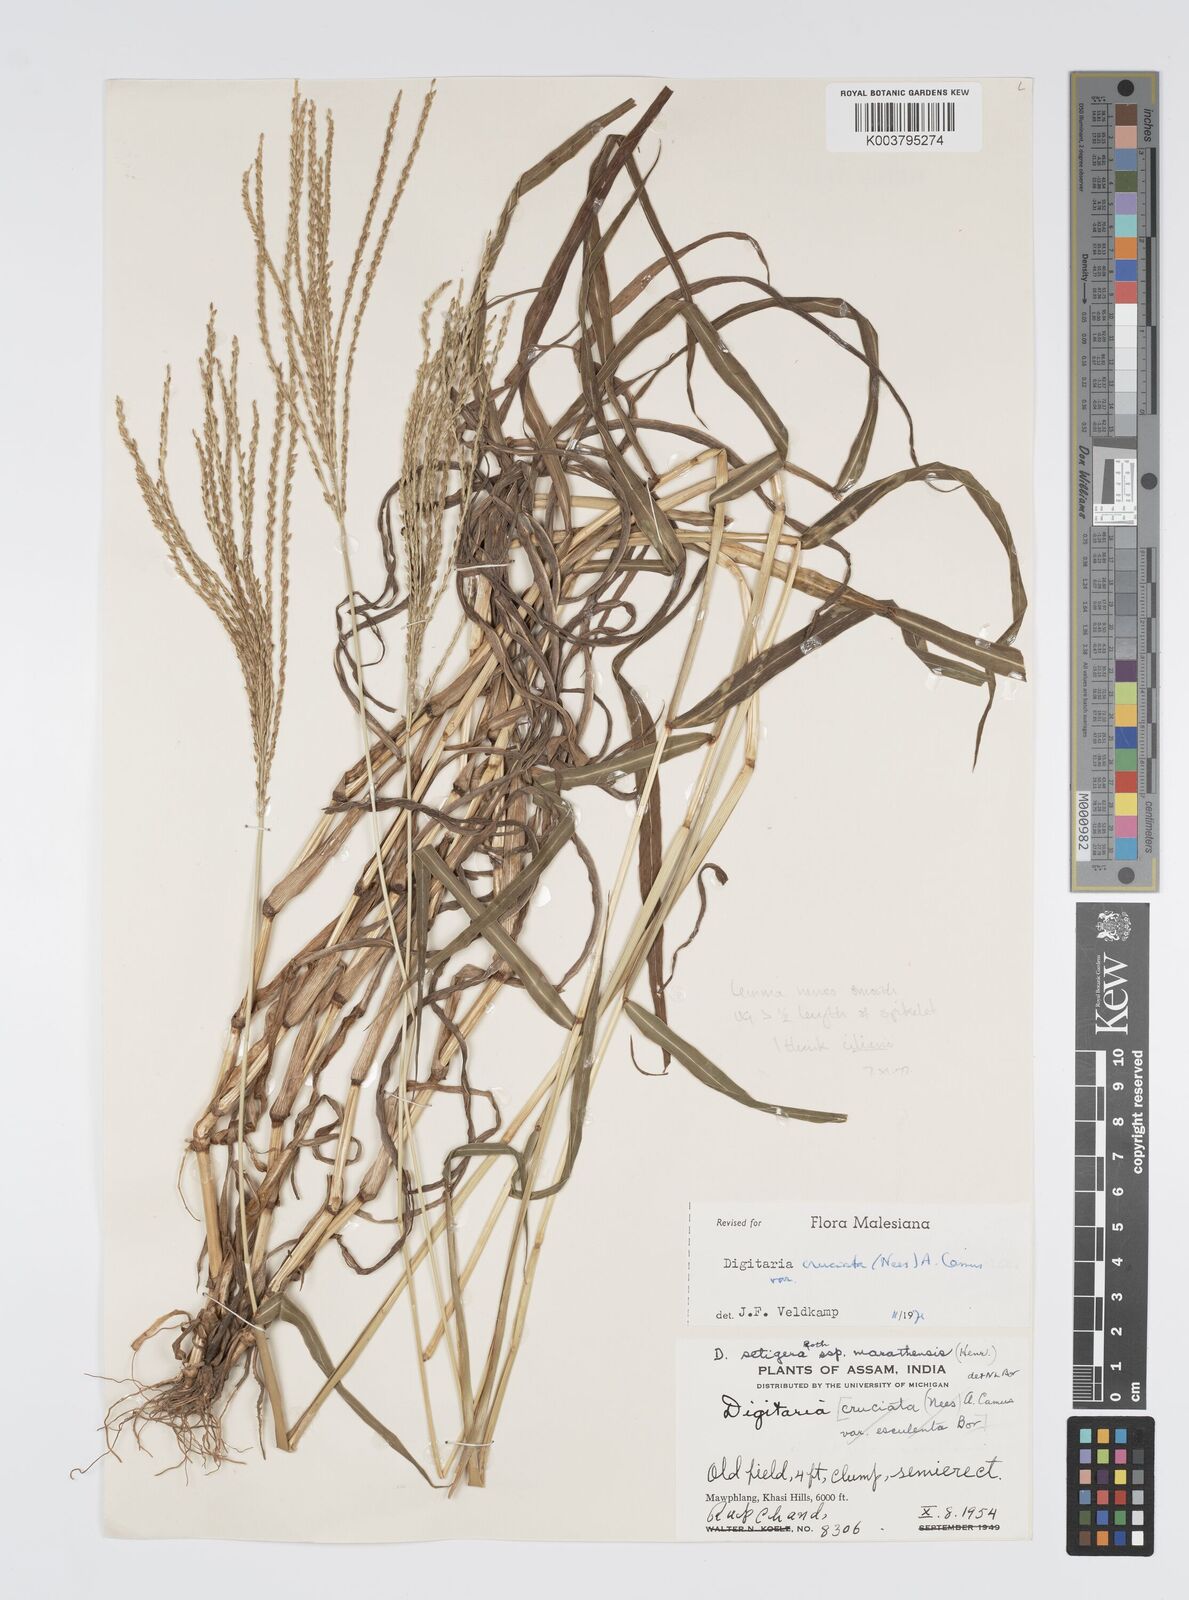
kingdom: Plantae
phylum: Tracheophyta
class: Liliopsida
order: Poales
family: Poaceae
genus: Digitaria
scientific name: Digitaria ciliaris
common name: Tropical finger-grass
